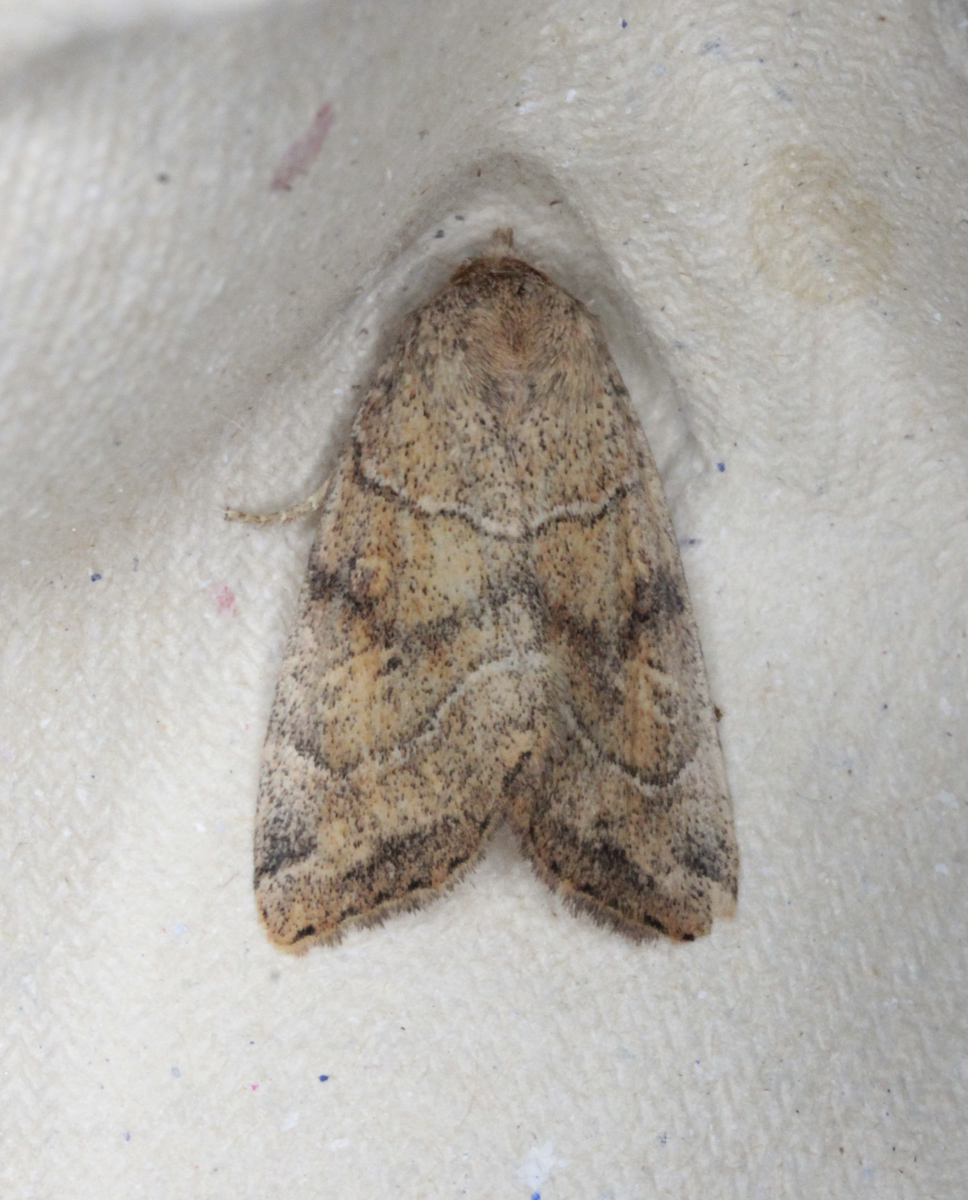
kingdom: Animalia
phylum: Arthropoda
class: Insecta
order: Lepidoptera
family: Noctuidae
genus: Cosmia
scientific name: Cosmia trapezina
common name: Dun-bar
